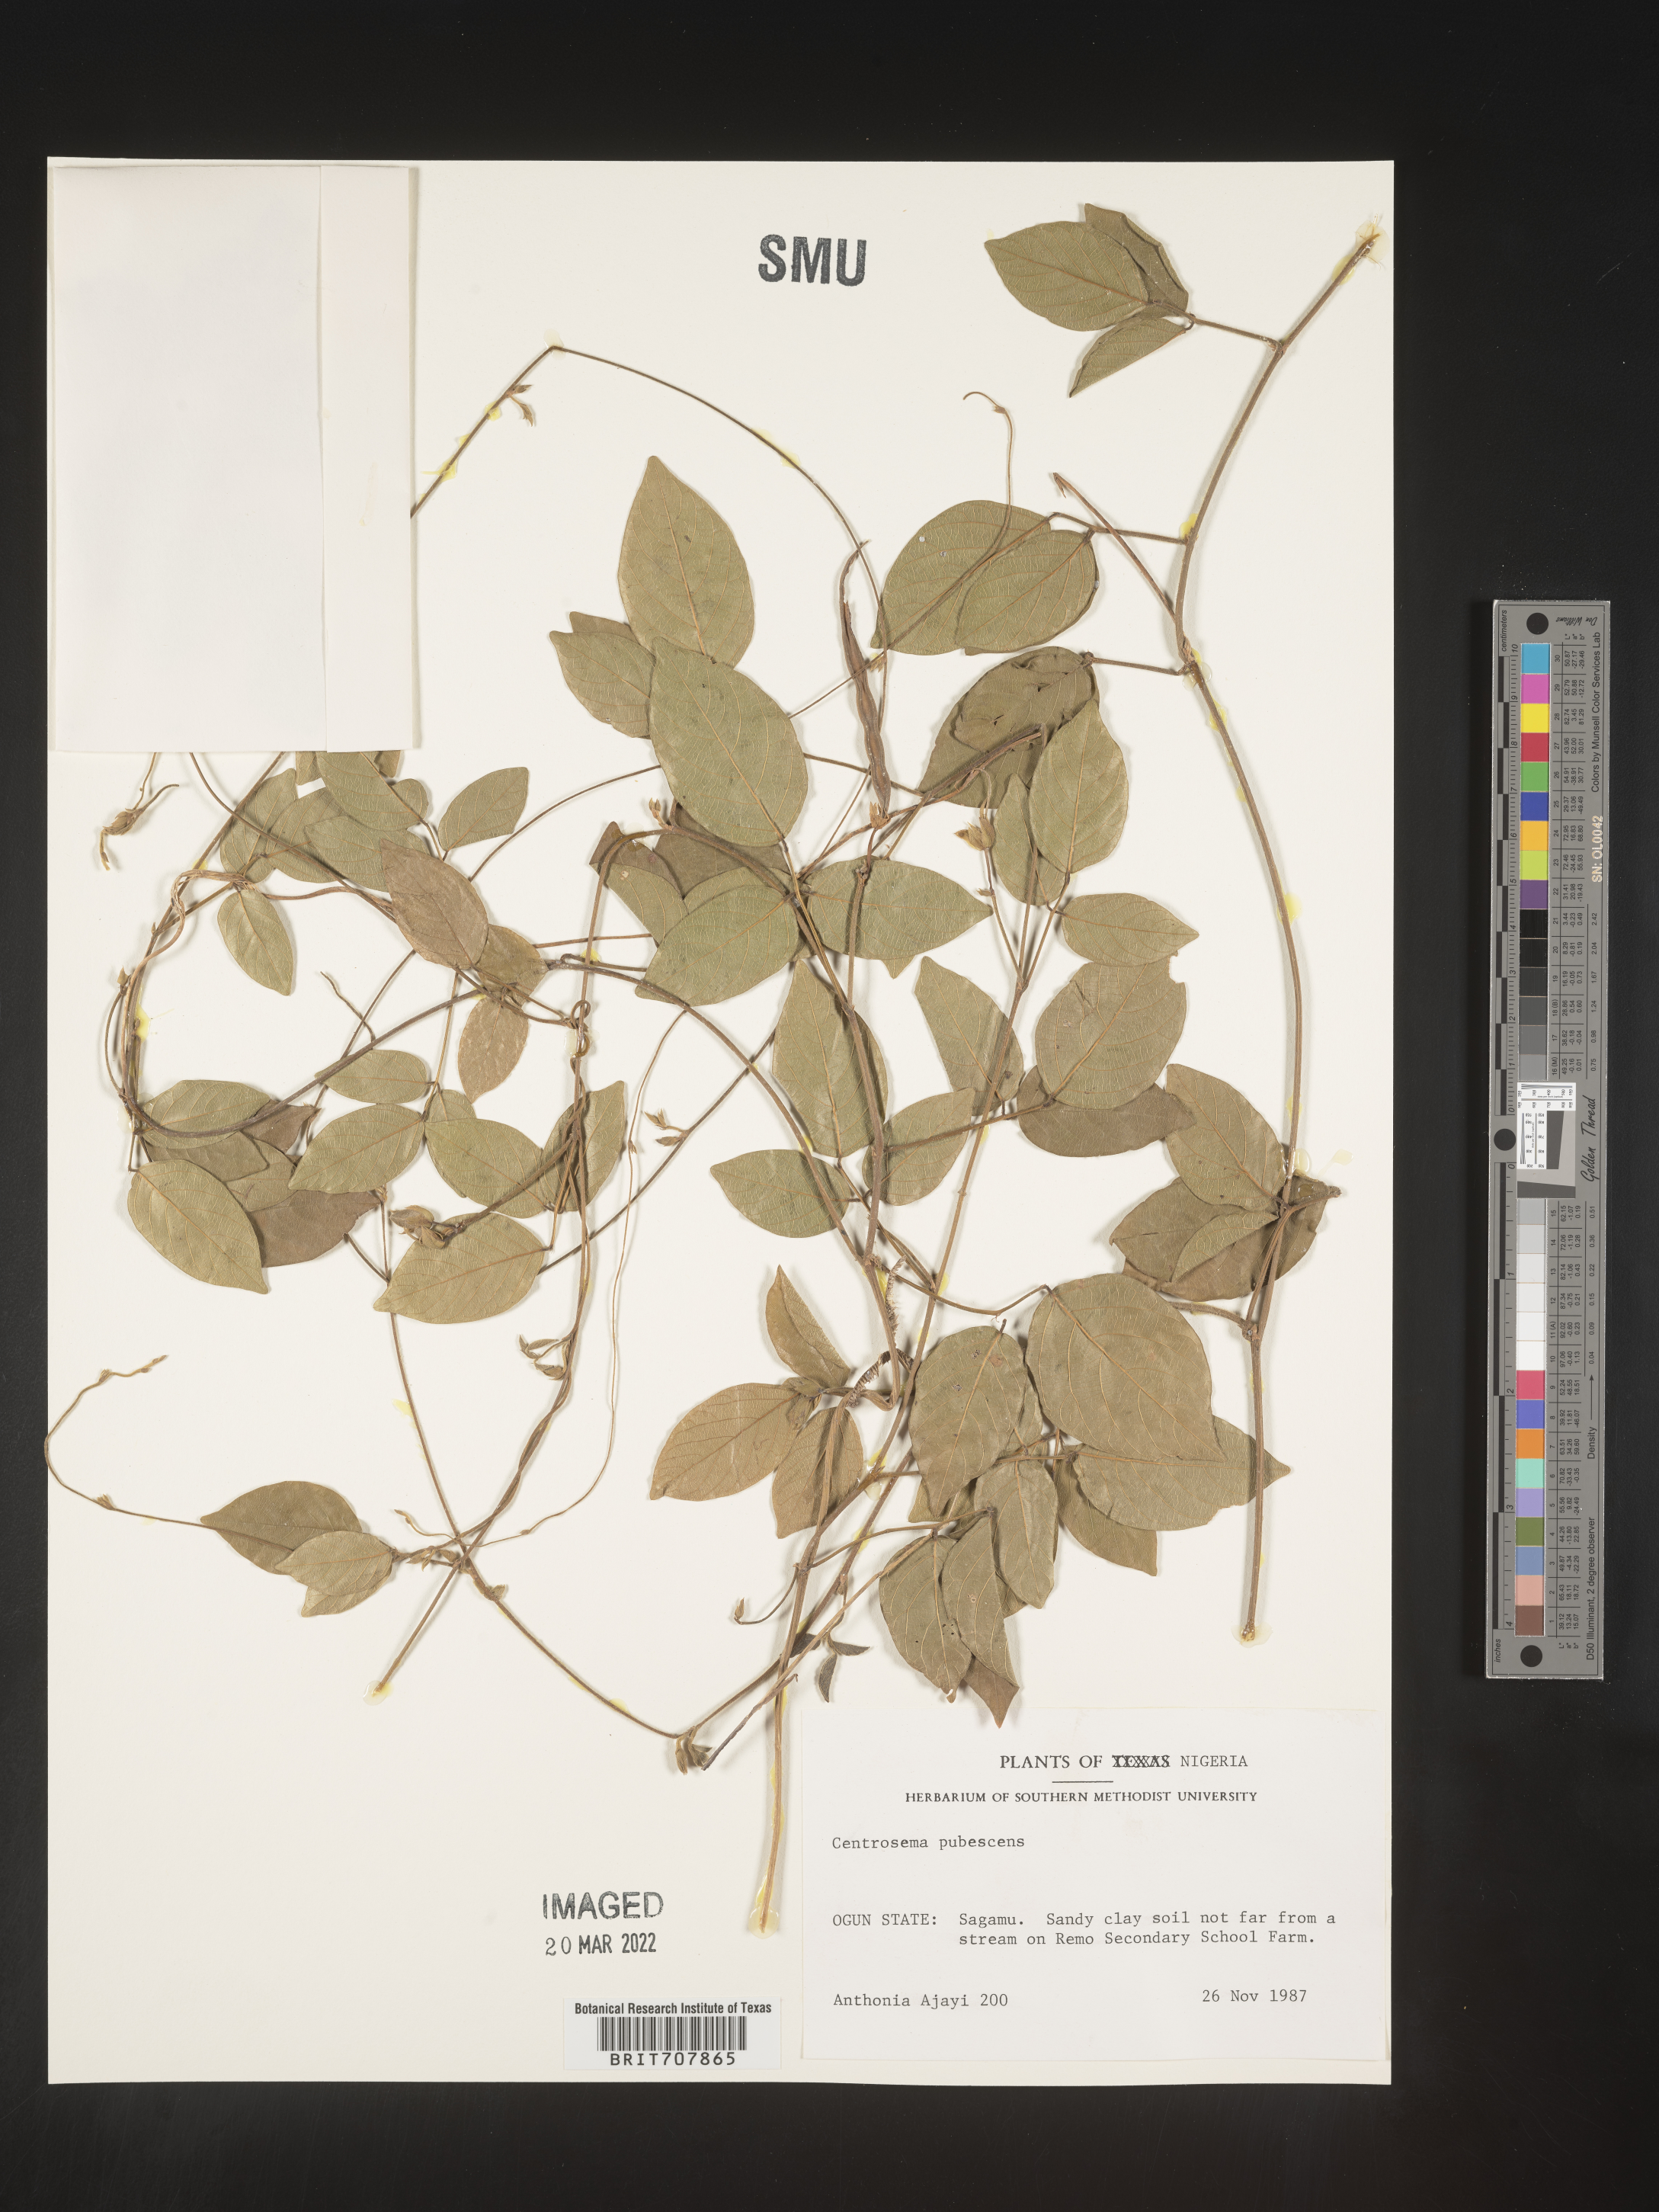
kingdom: Plantae
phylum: Tracheophyta
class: Magnoliopsida
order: Fabales
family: Fabaceae
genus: Centrosema
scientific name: Centrosema
